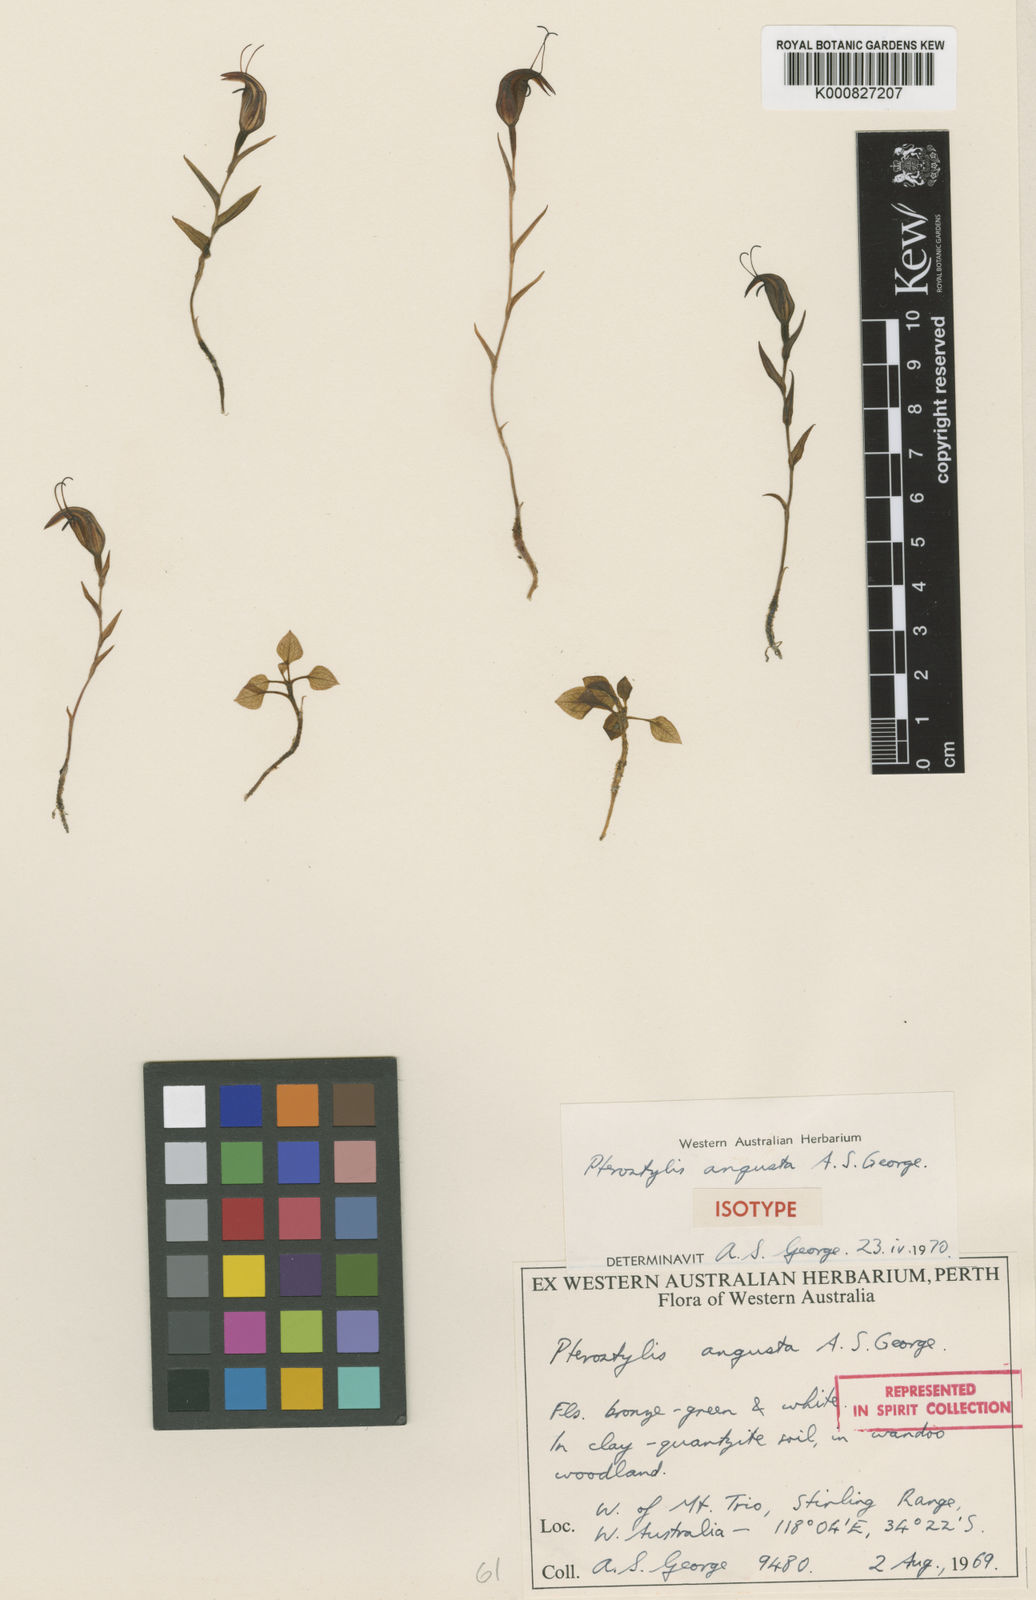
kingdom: Plantae
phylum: Tracheophyta
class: Liliopsida
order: Asparagales
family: Orchidaceae
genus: Pterostylis
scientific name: Pterostylis angusta
